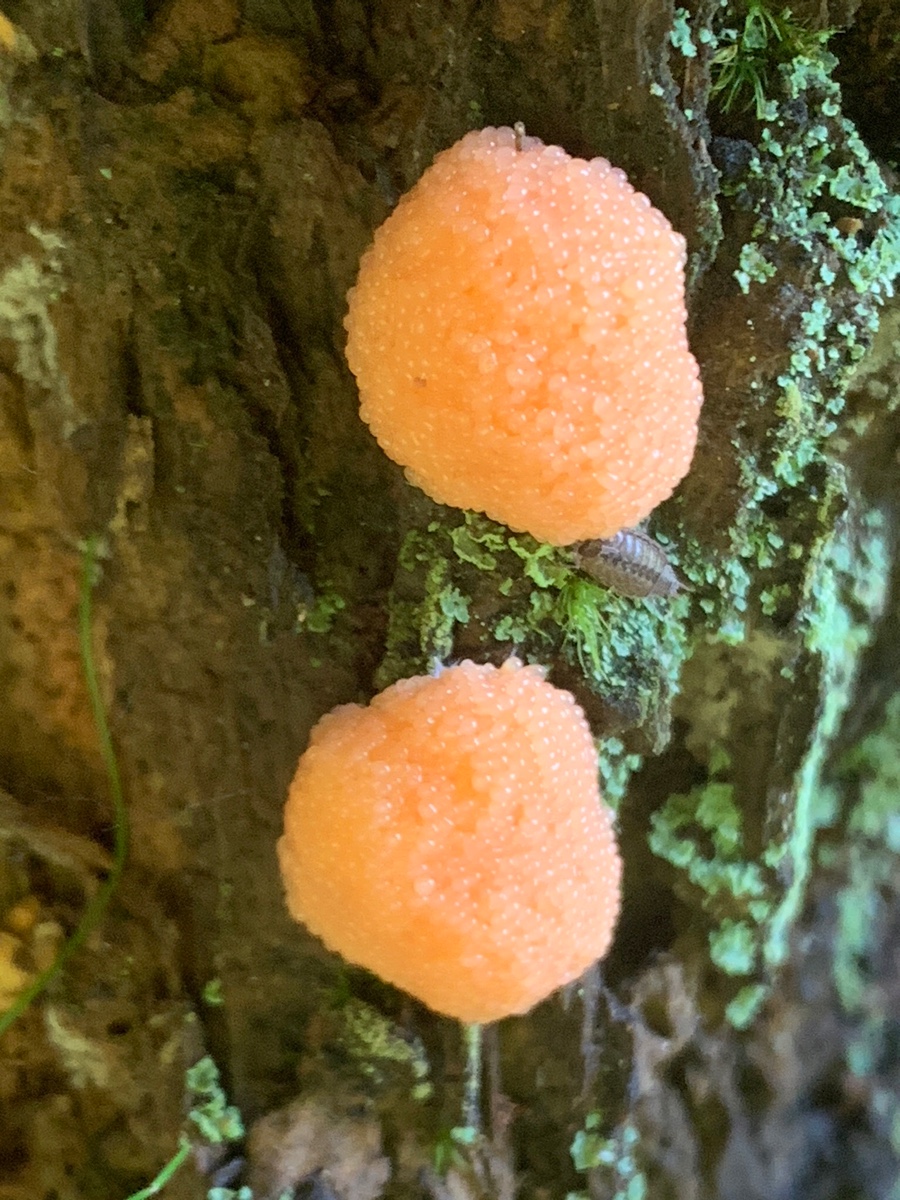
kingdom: Protozoa
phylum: Mycetozoa
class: Myxomycetes
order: Cribrariales
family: Tubiferaceae
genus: Tubifera
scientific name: Tubifera ferruginosa
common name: kanel-støvrør
